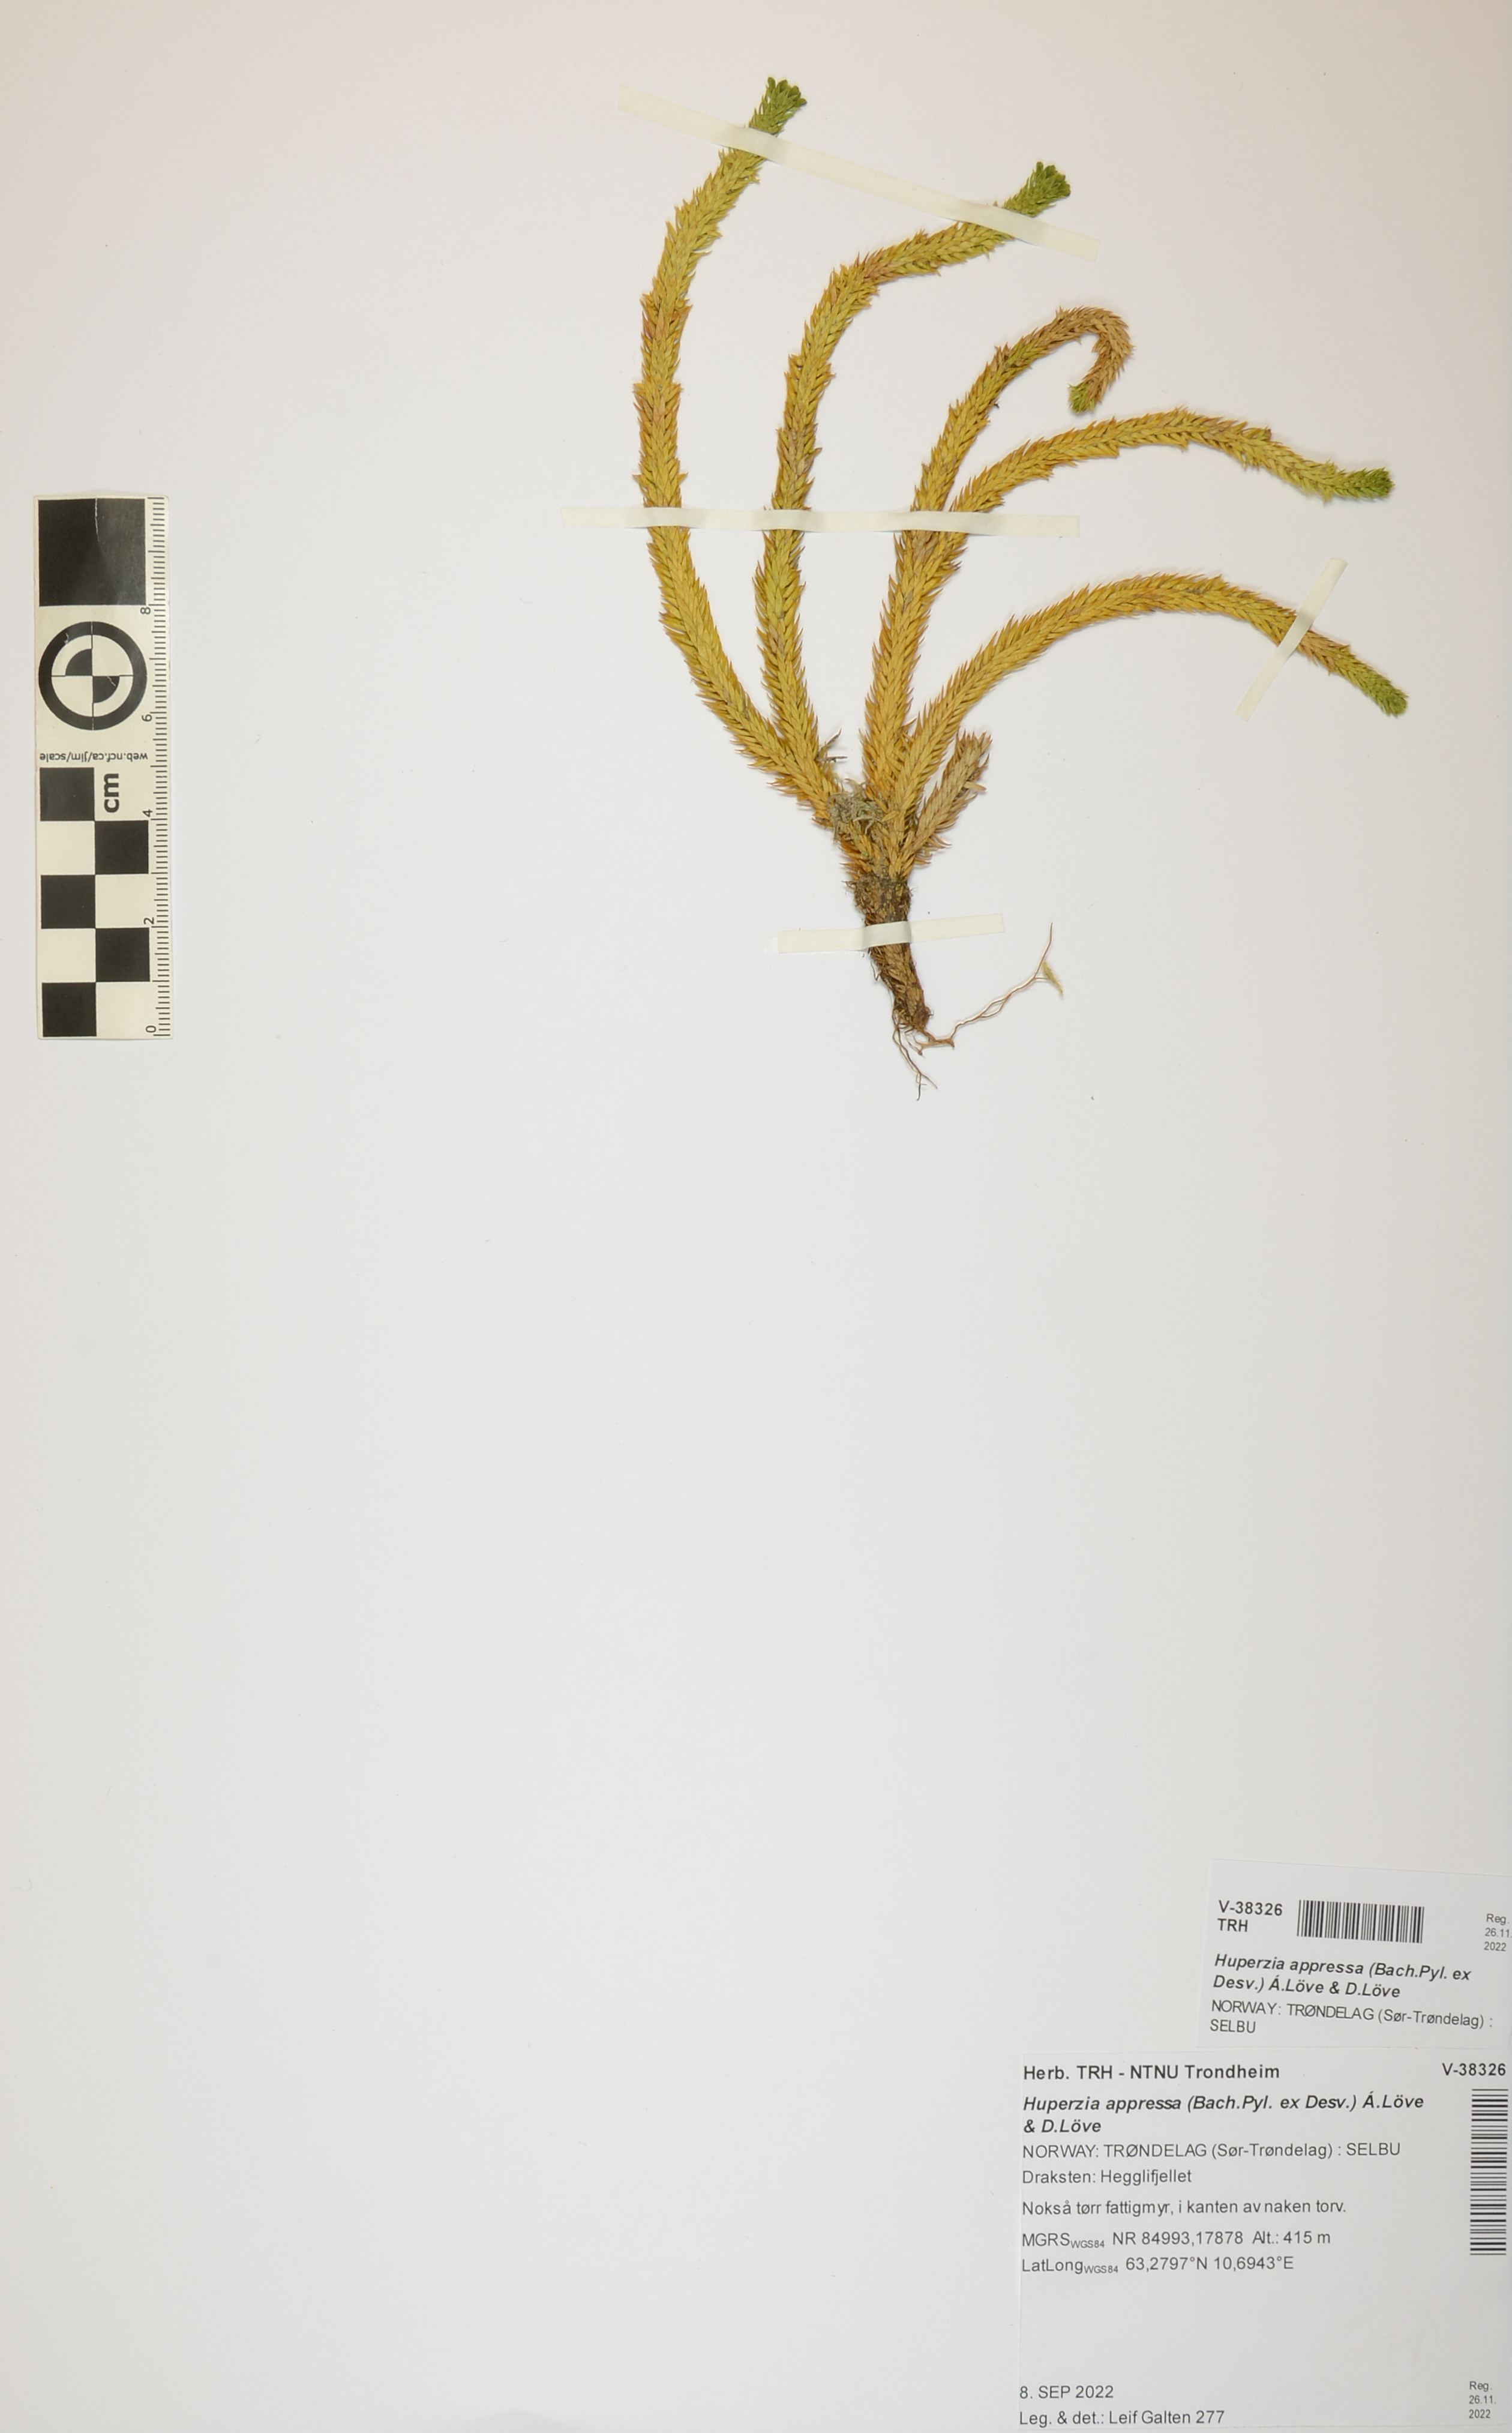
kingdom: Plantae
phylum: Tracheophyta
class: Lycopodiopsida
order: Lycopodiales
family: Lycopodiaceae
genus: Huperzia
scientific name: Huperzia selago
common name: Northern firmoss
